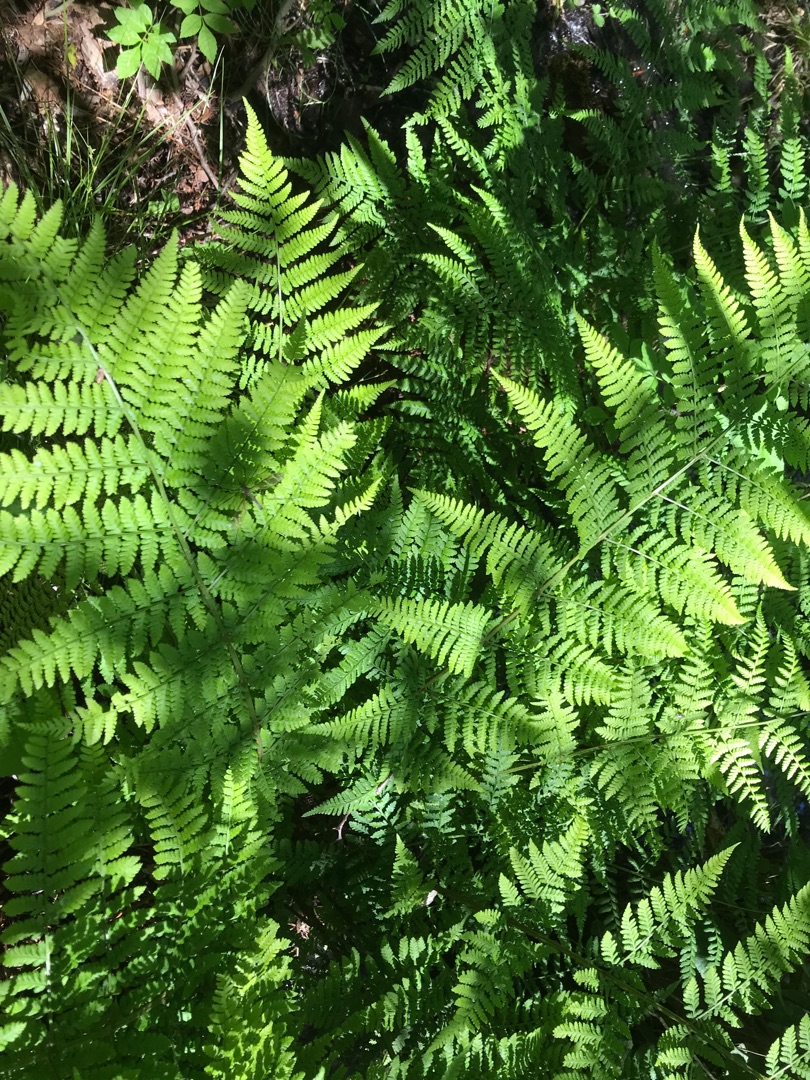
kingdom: Plantae
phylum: Tracheophyta
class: Polypodiopsida
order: Polypodiales
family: Athyriaceae
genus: Athyrium
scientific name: Athyrium filix-femina
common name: Fjerbregne
